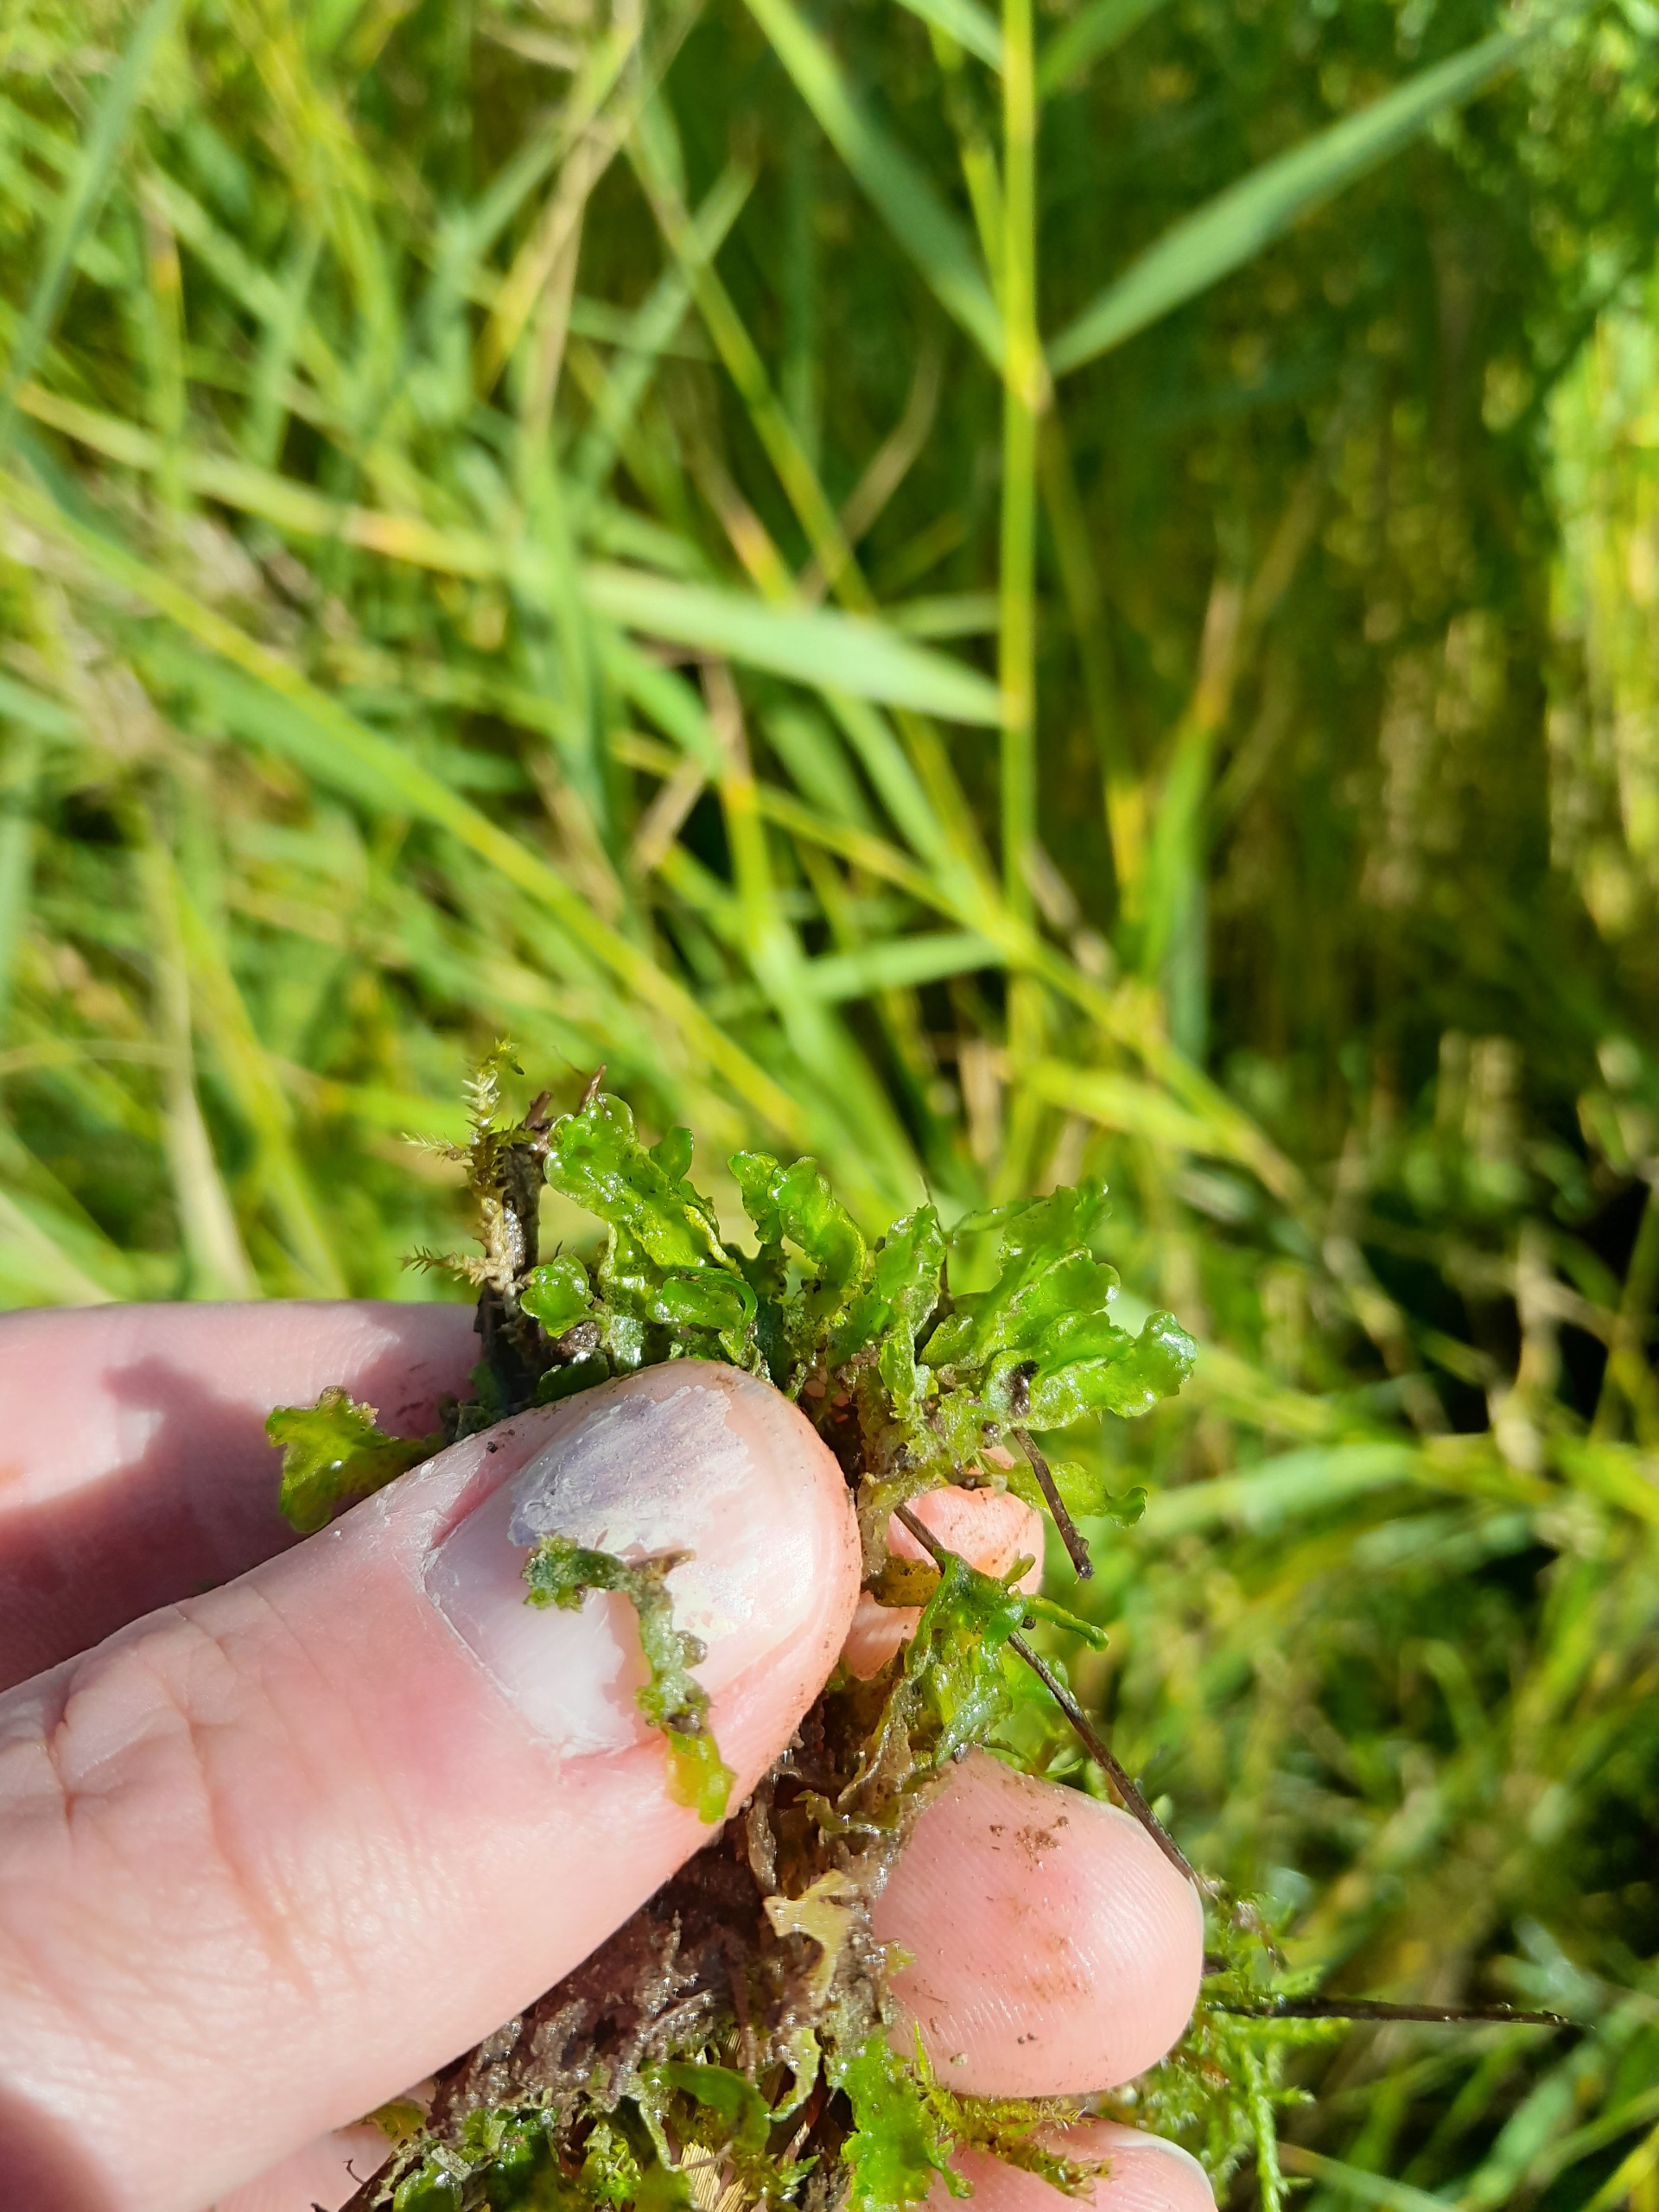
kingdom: Plantae
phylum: Marchantiophyta
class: Jungermanniopsida
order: Metzgeriales
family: Aneuraceae
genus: Aneura
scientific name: Aneura pinguis
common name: Tyk nerveløs
